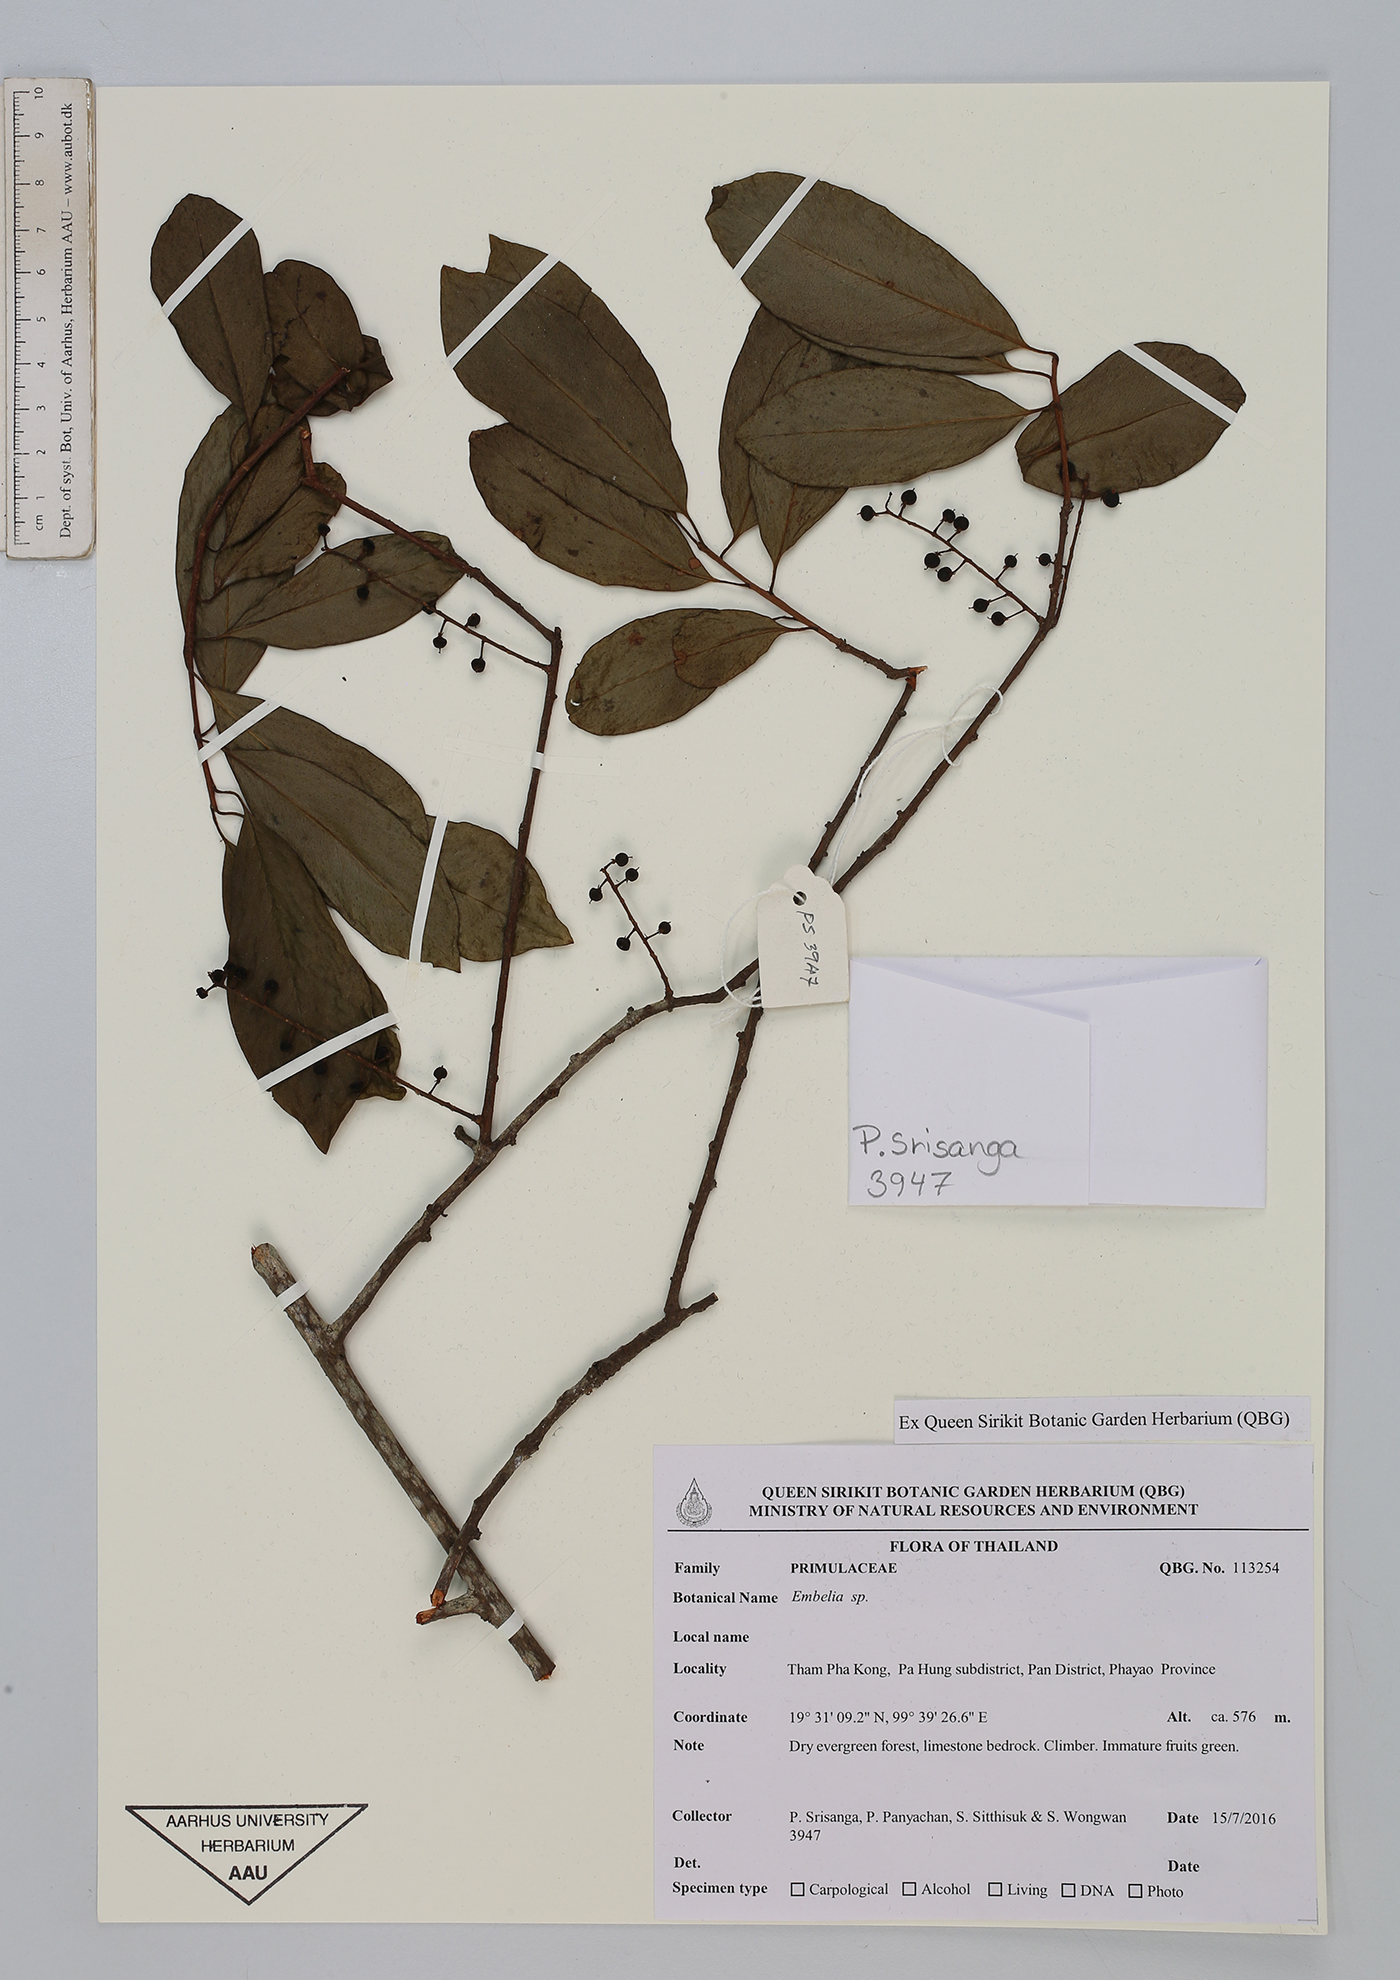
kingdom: Plantae
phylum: Tracheophyta
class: Magnoliopsida
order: Ericales
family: Primulaceae
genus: Embelia
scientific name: Embelia
